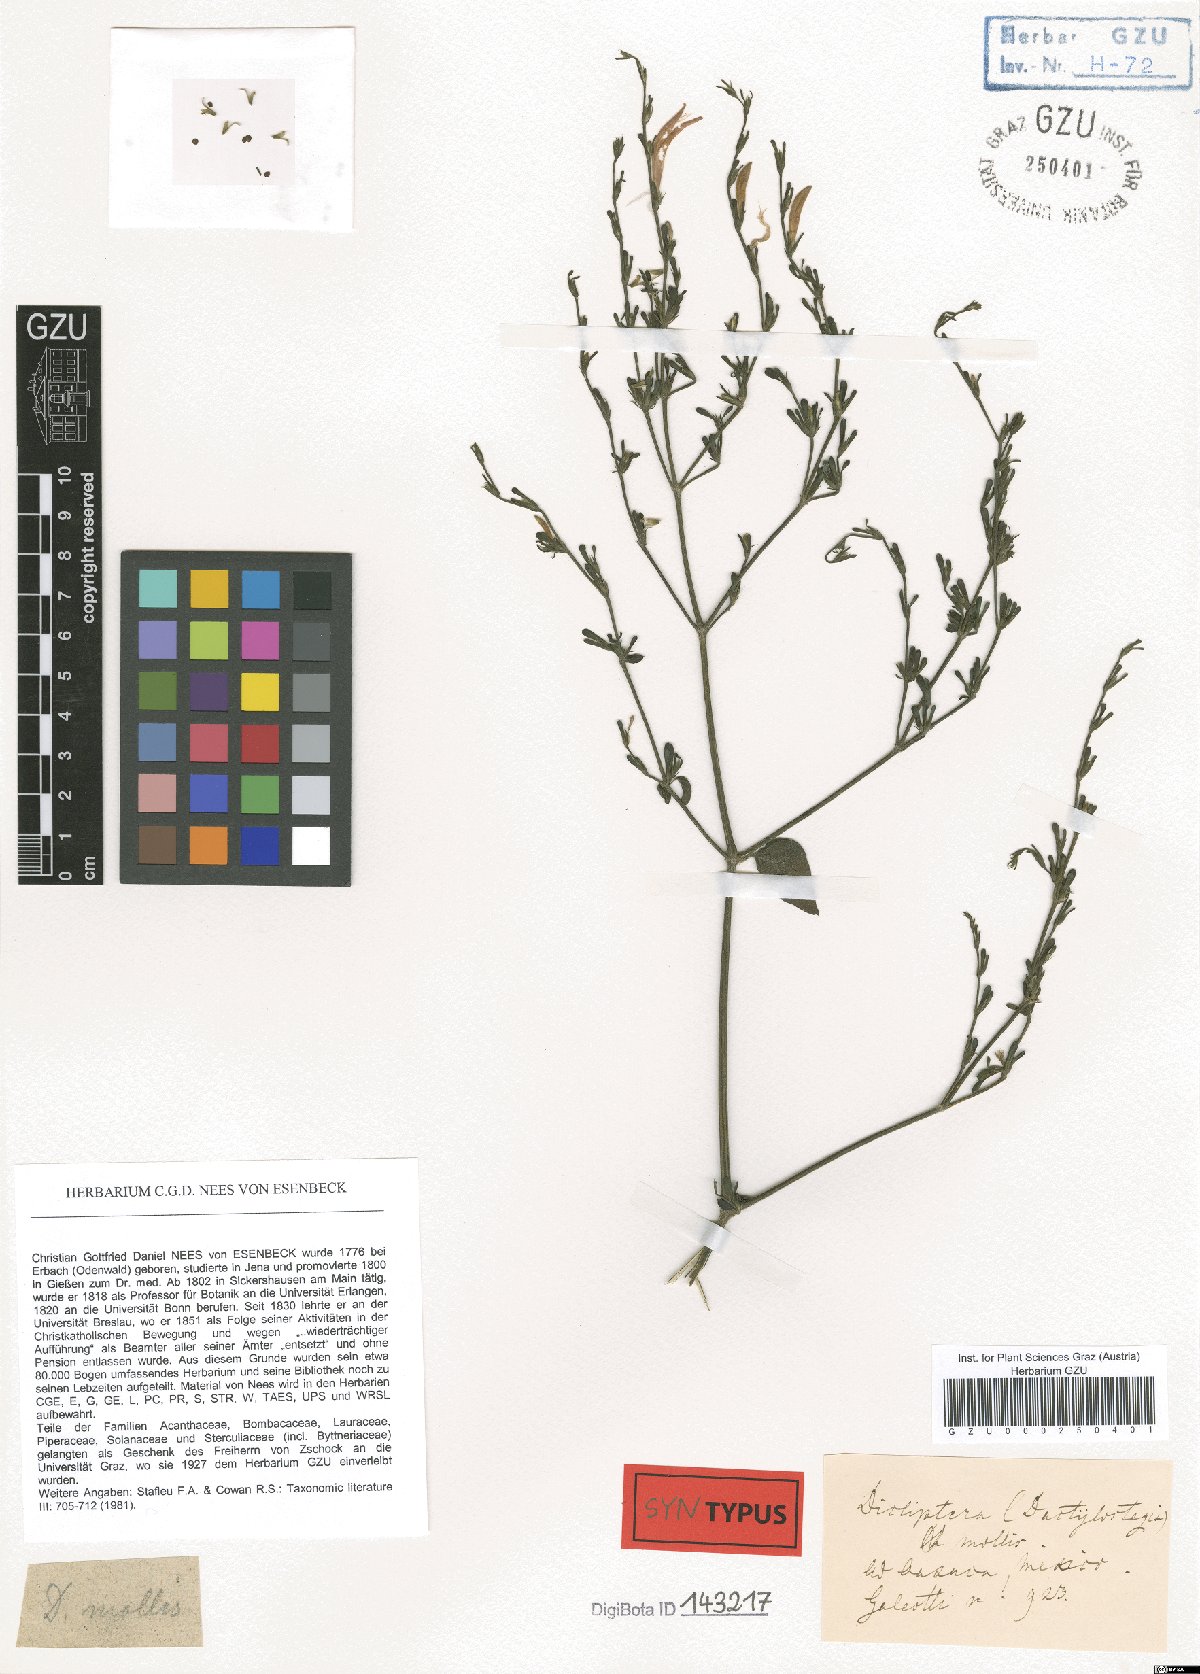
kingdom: Plantae
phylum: Tracheophyta
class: Magnoliopsida
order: Lamiales
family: Acanthaceae
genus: Dicliptera
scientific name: Dicliptera sexangularis
